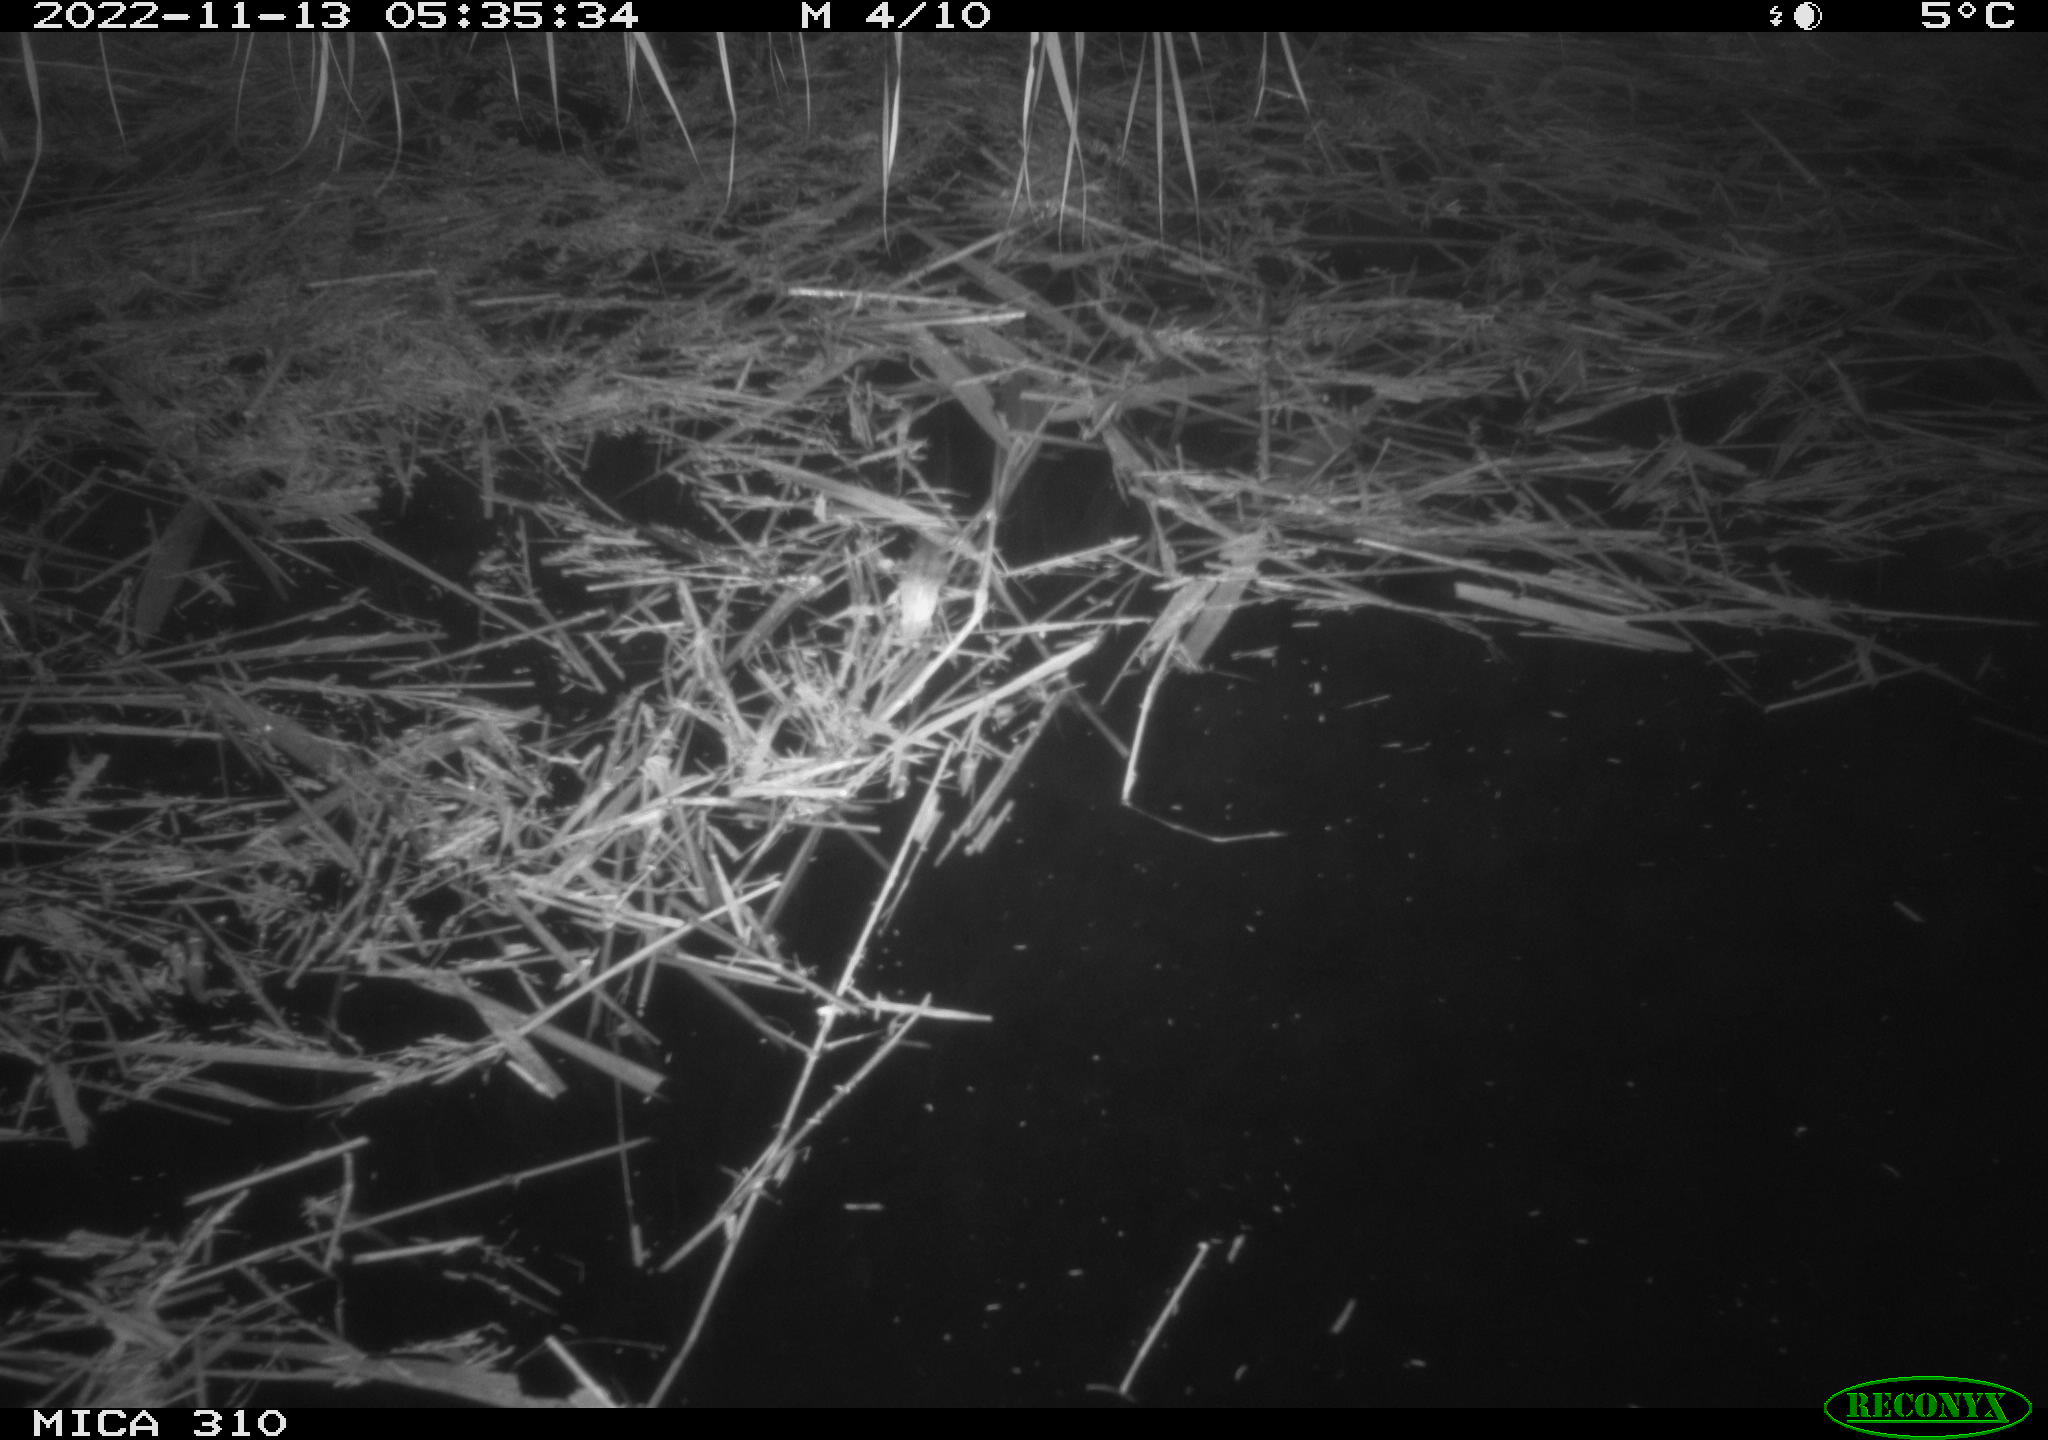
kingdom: Animalia
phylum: Chordata
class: Mammalia
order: Rodentia
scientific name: Rodentia
